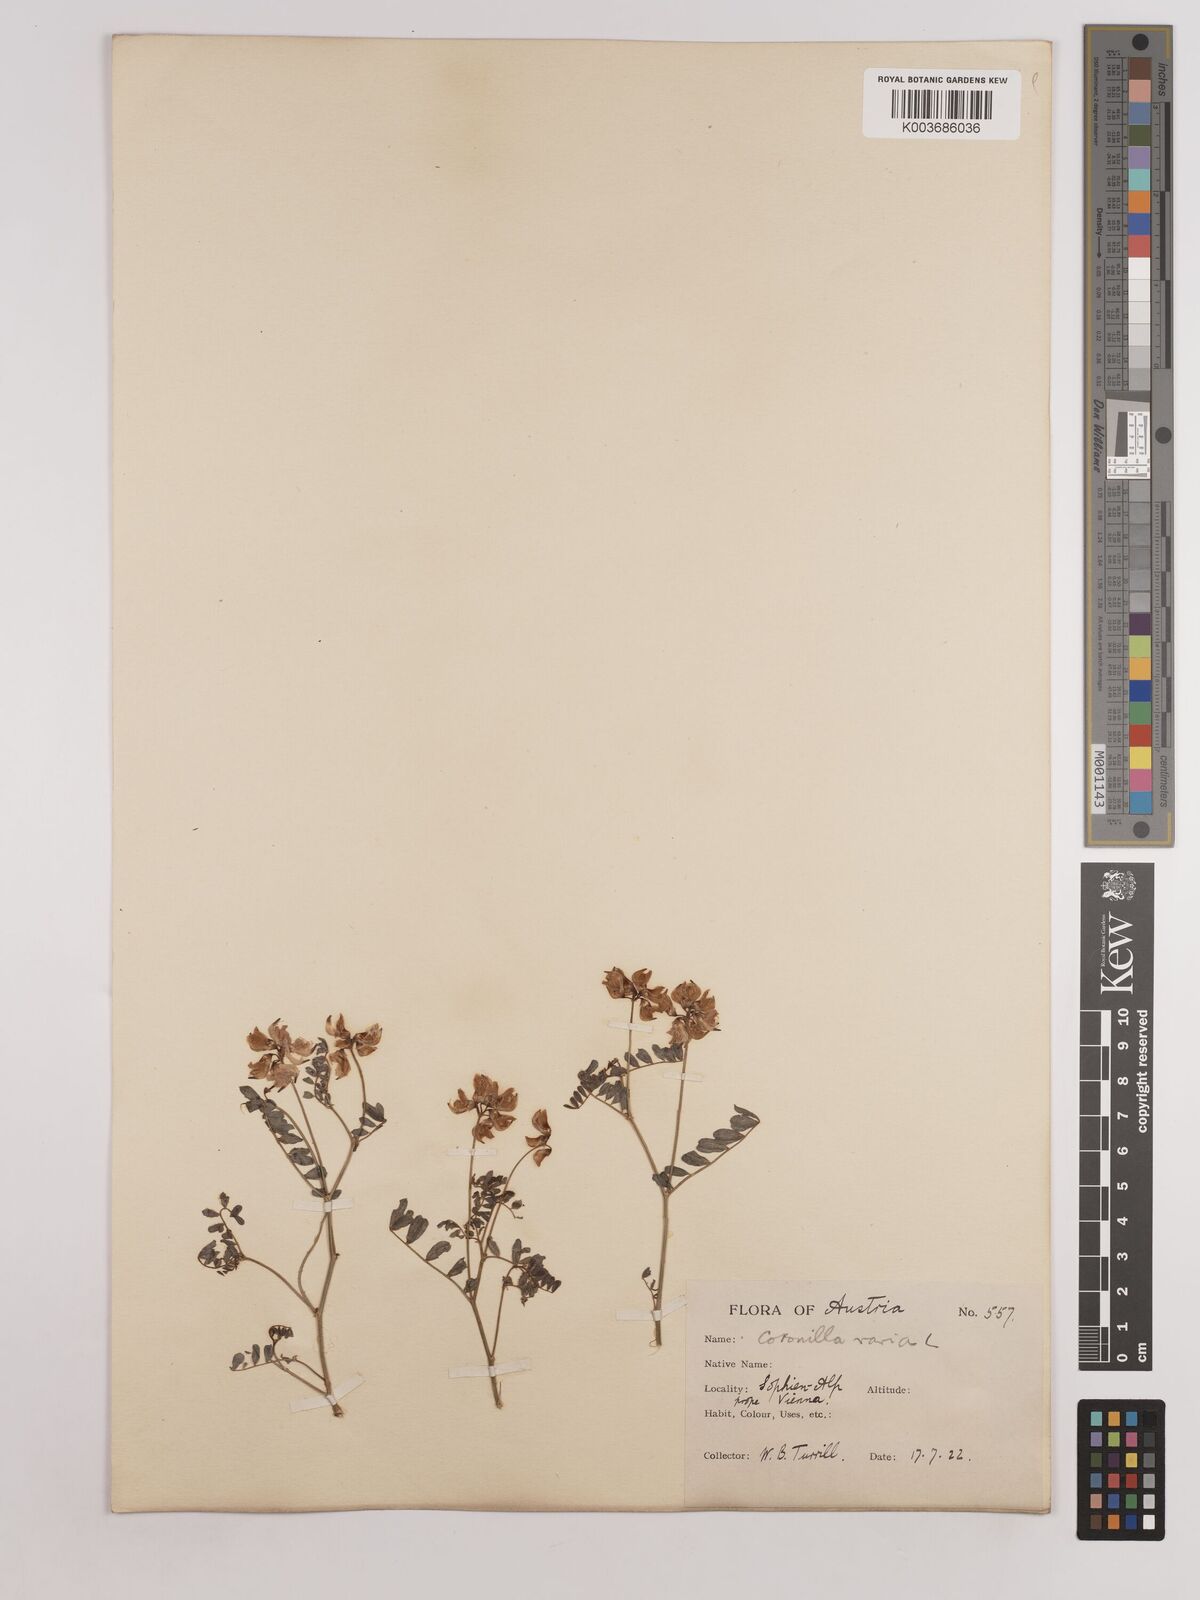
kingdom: Plantae
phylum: Tracheophyta
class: Magnoliopsida
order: Fabales
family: Fabaceae
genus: Coronilla
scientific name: Coronilla varia
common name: Crownvetch
